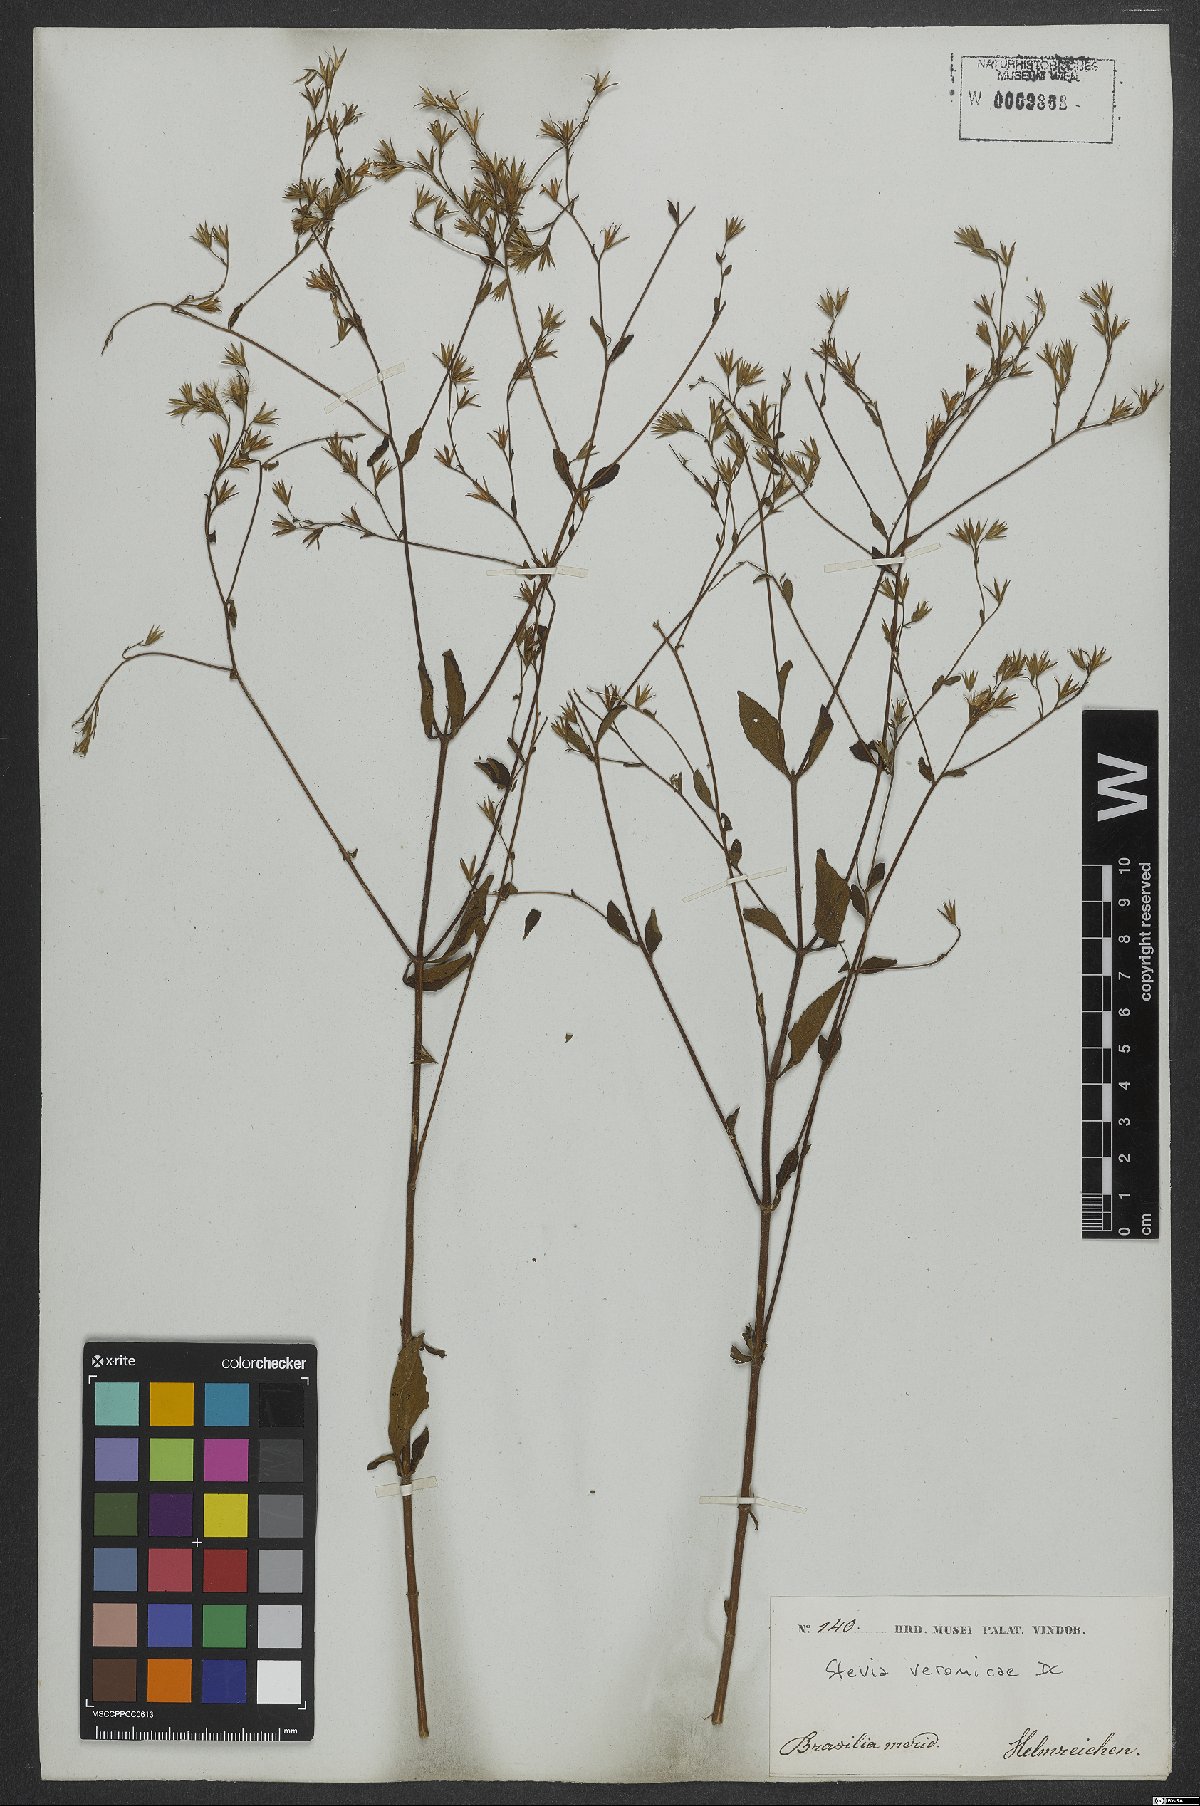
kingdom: Plantae
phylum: Tracheophyta
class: Magnoliopsida
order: Asterales
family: Asteraceae
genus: Stevia
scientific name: Stevia veronicae
